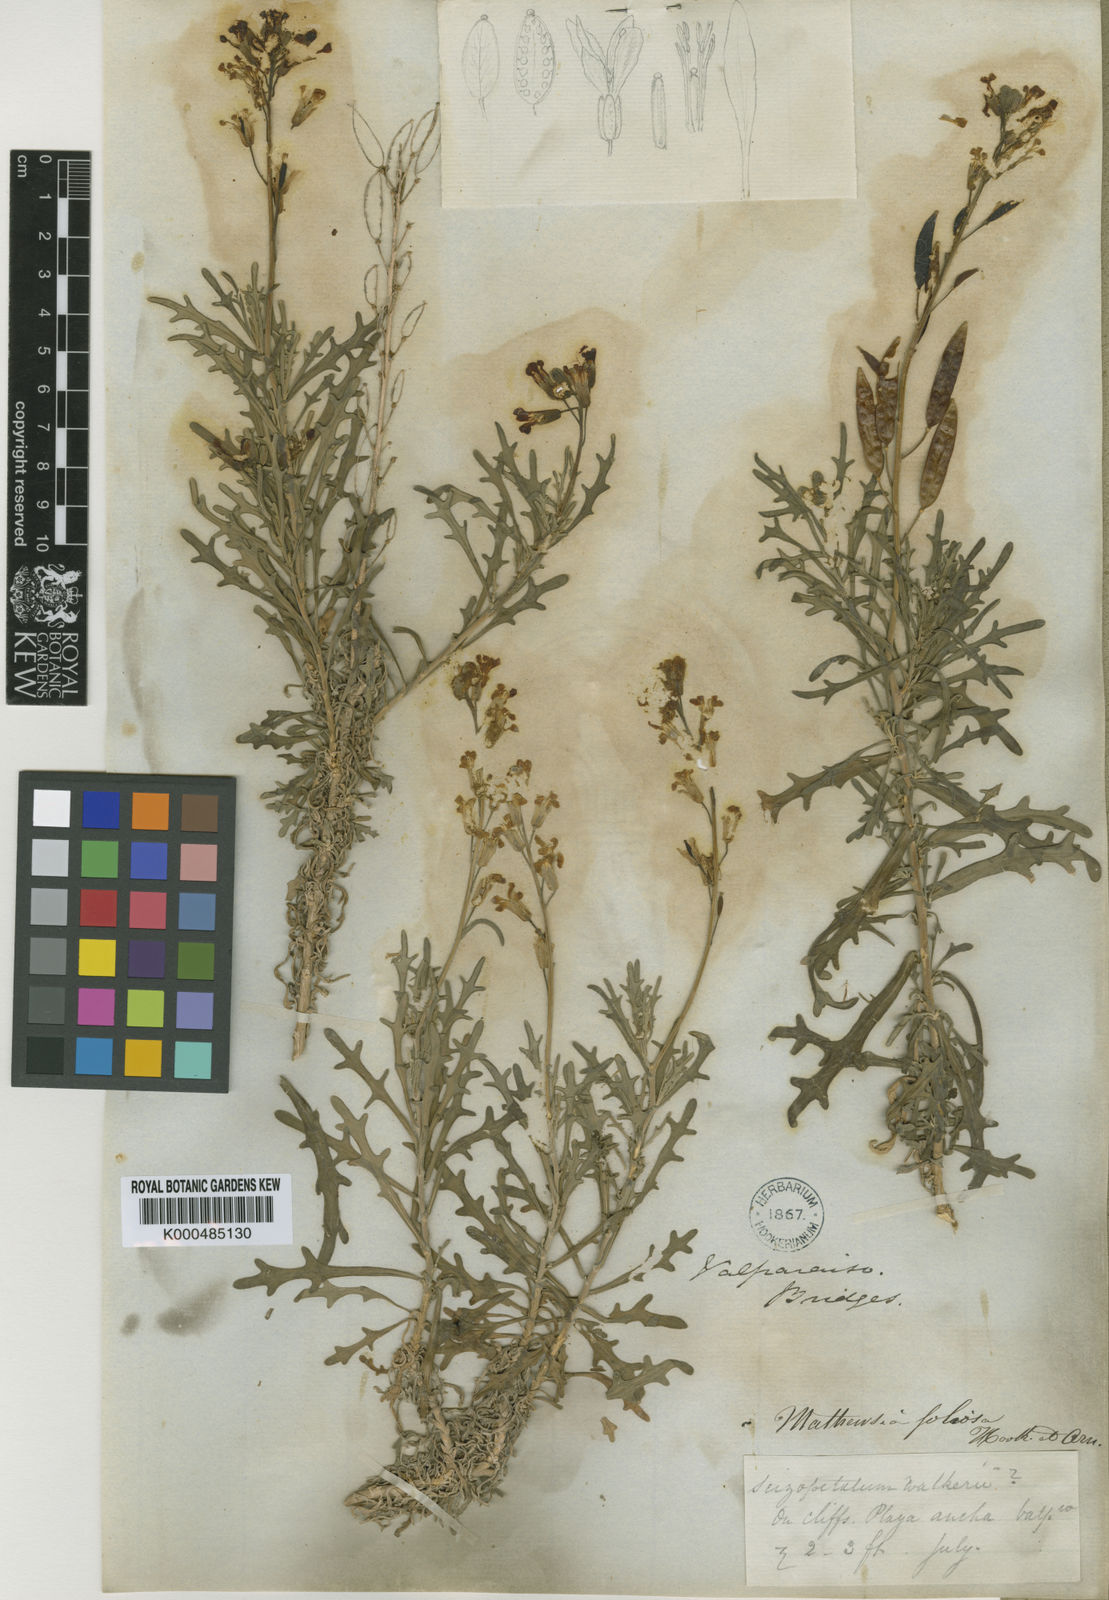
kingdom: Plantae
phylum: Tracheophyta
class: Magnoliopsida
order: Brassicales
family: Brassicaceae
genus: Mathewsia
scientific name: Mathewsia foliosa
